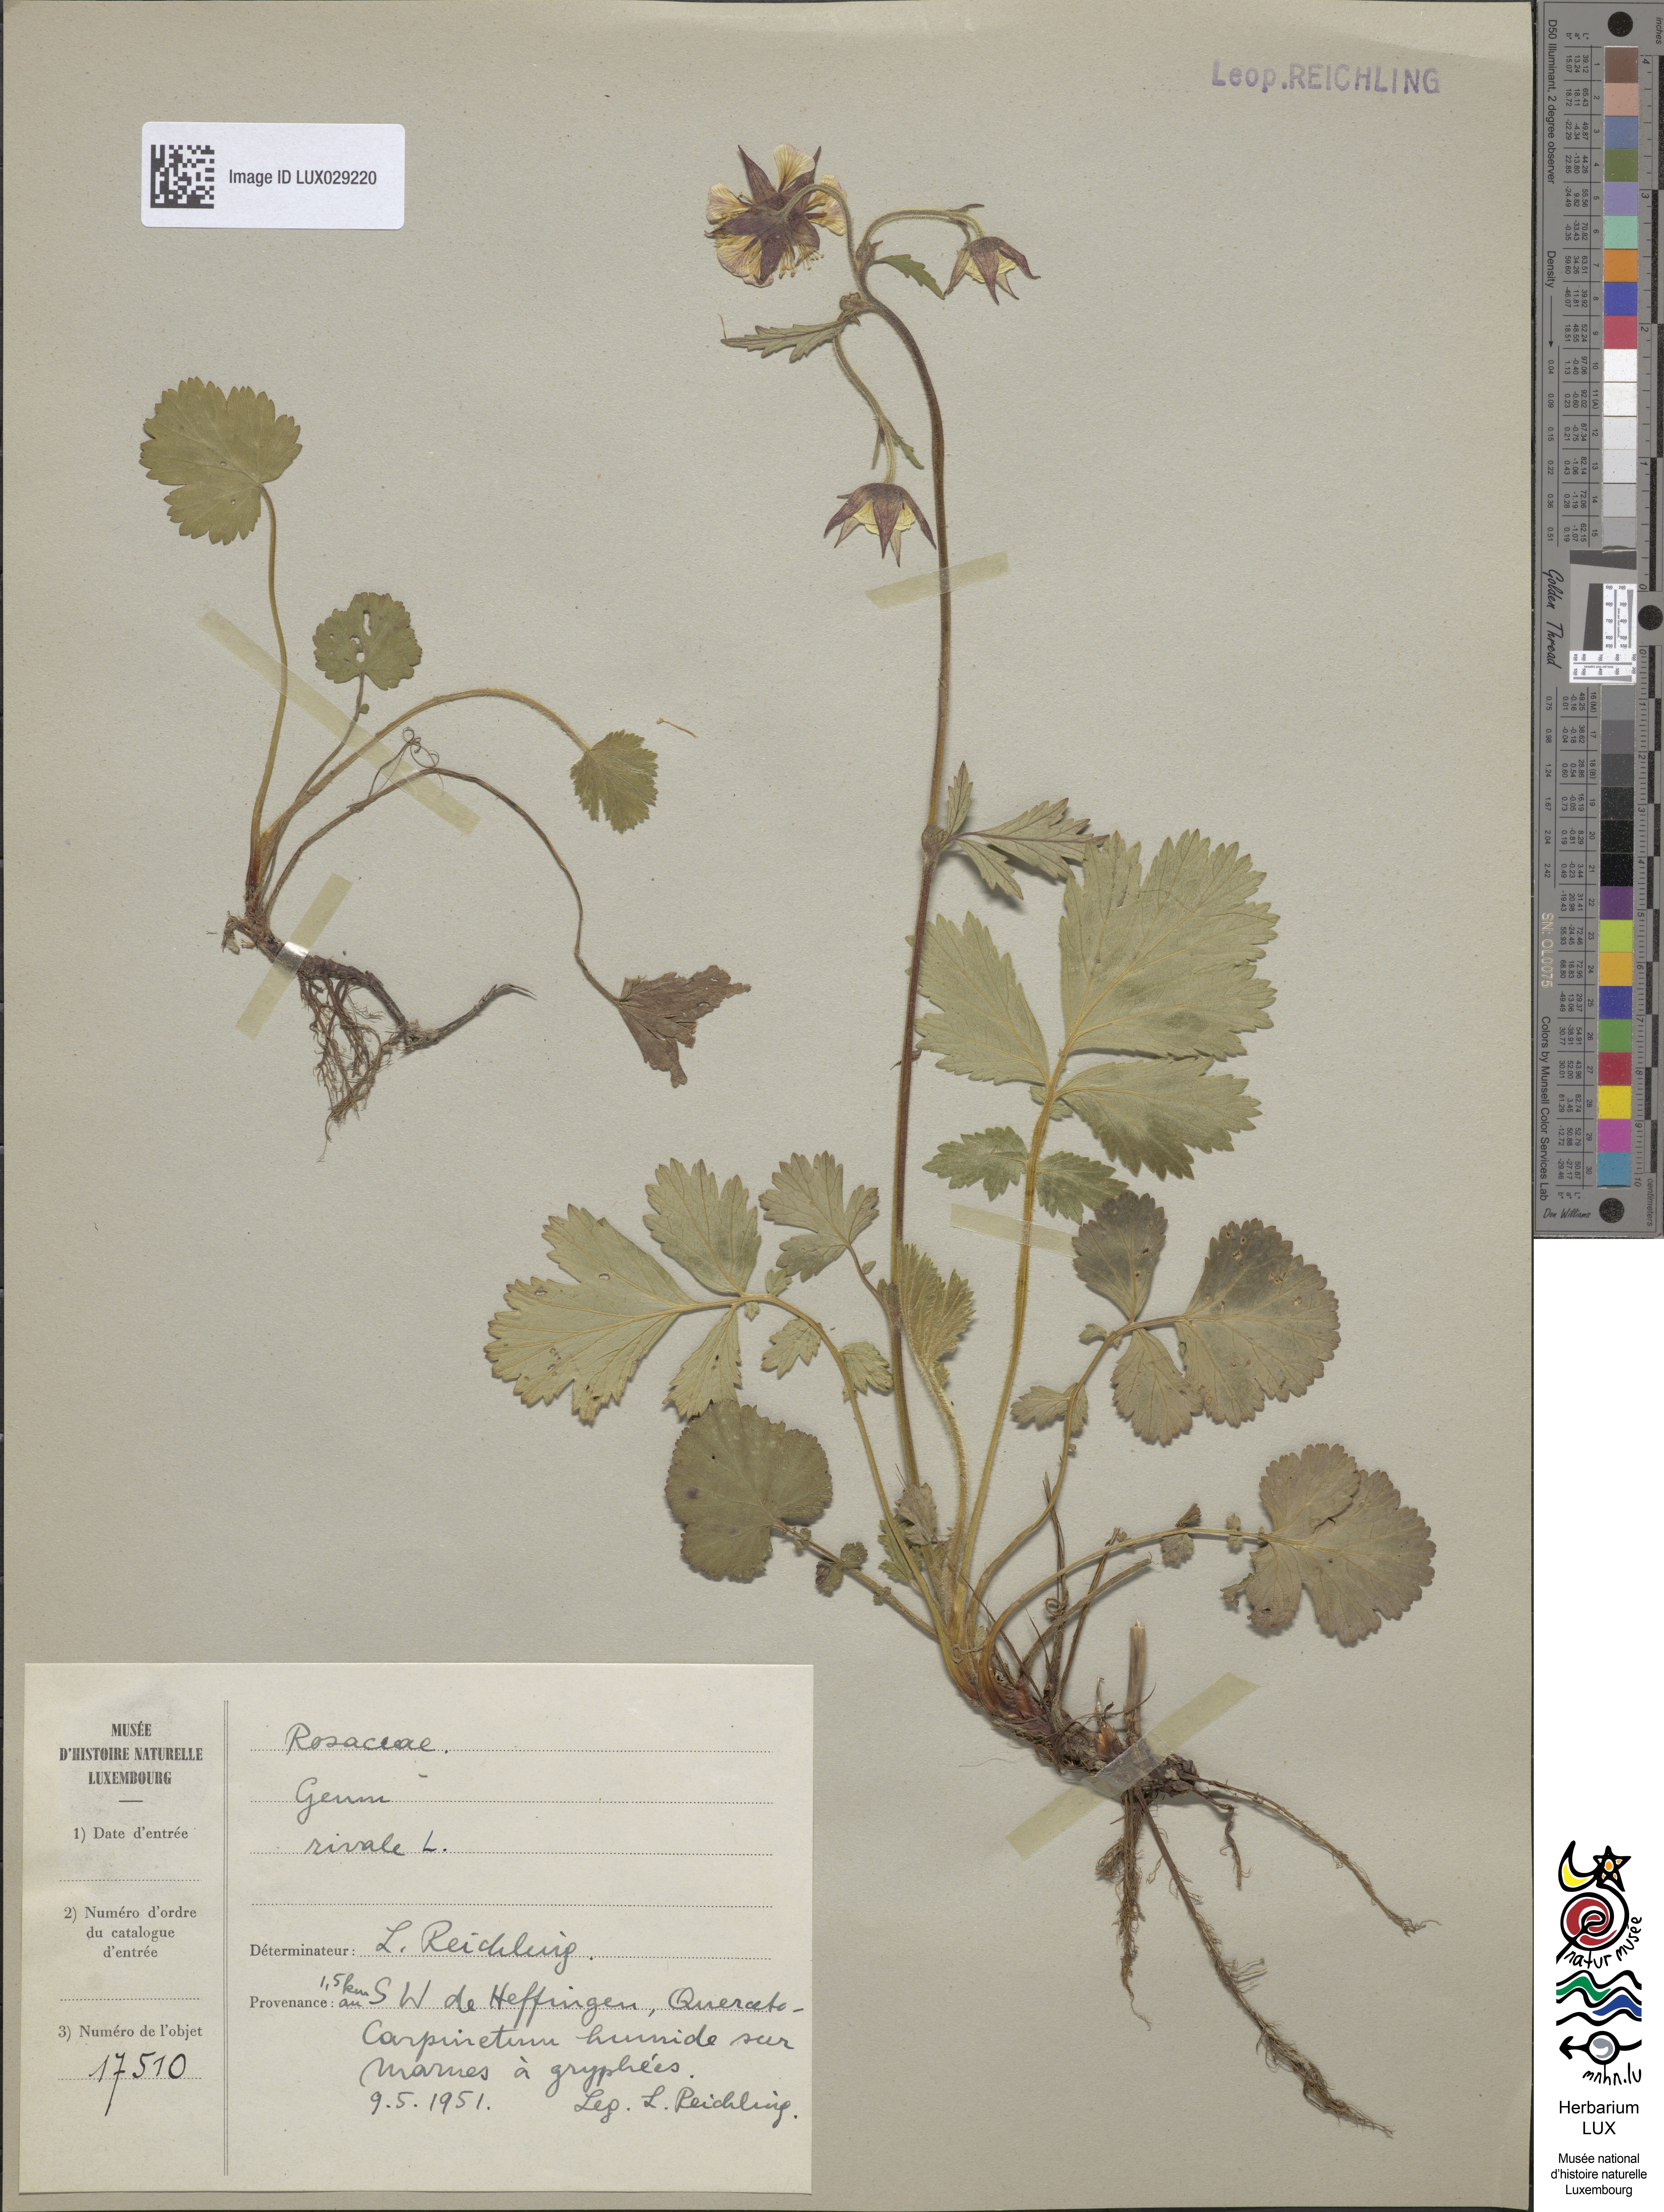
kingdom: Plantae
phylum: Tracheophyta
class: Magnoliopsida
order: Rosales
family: Rosaceae
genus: Geum
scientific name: Geum rivale
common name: Water avens
